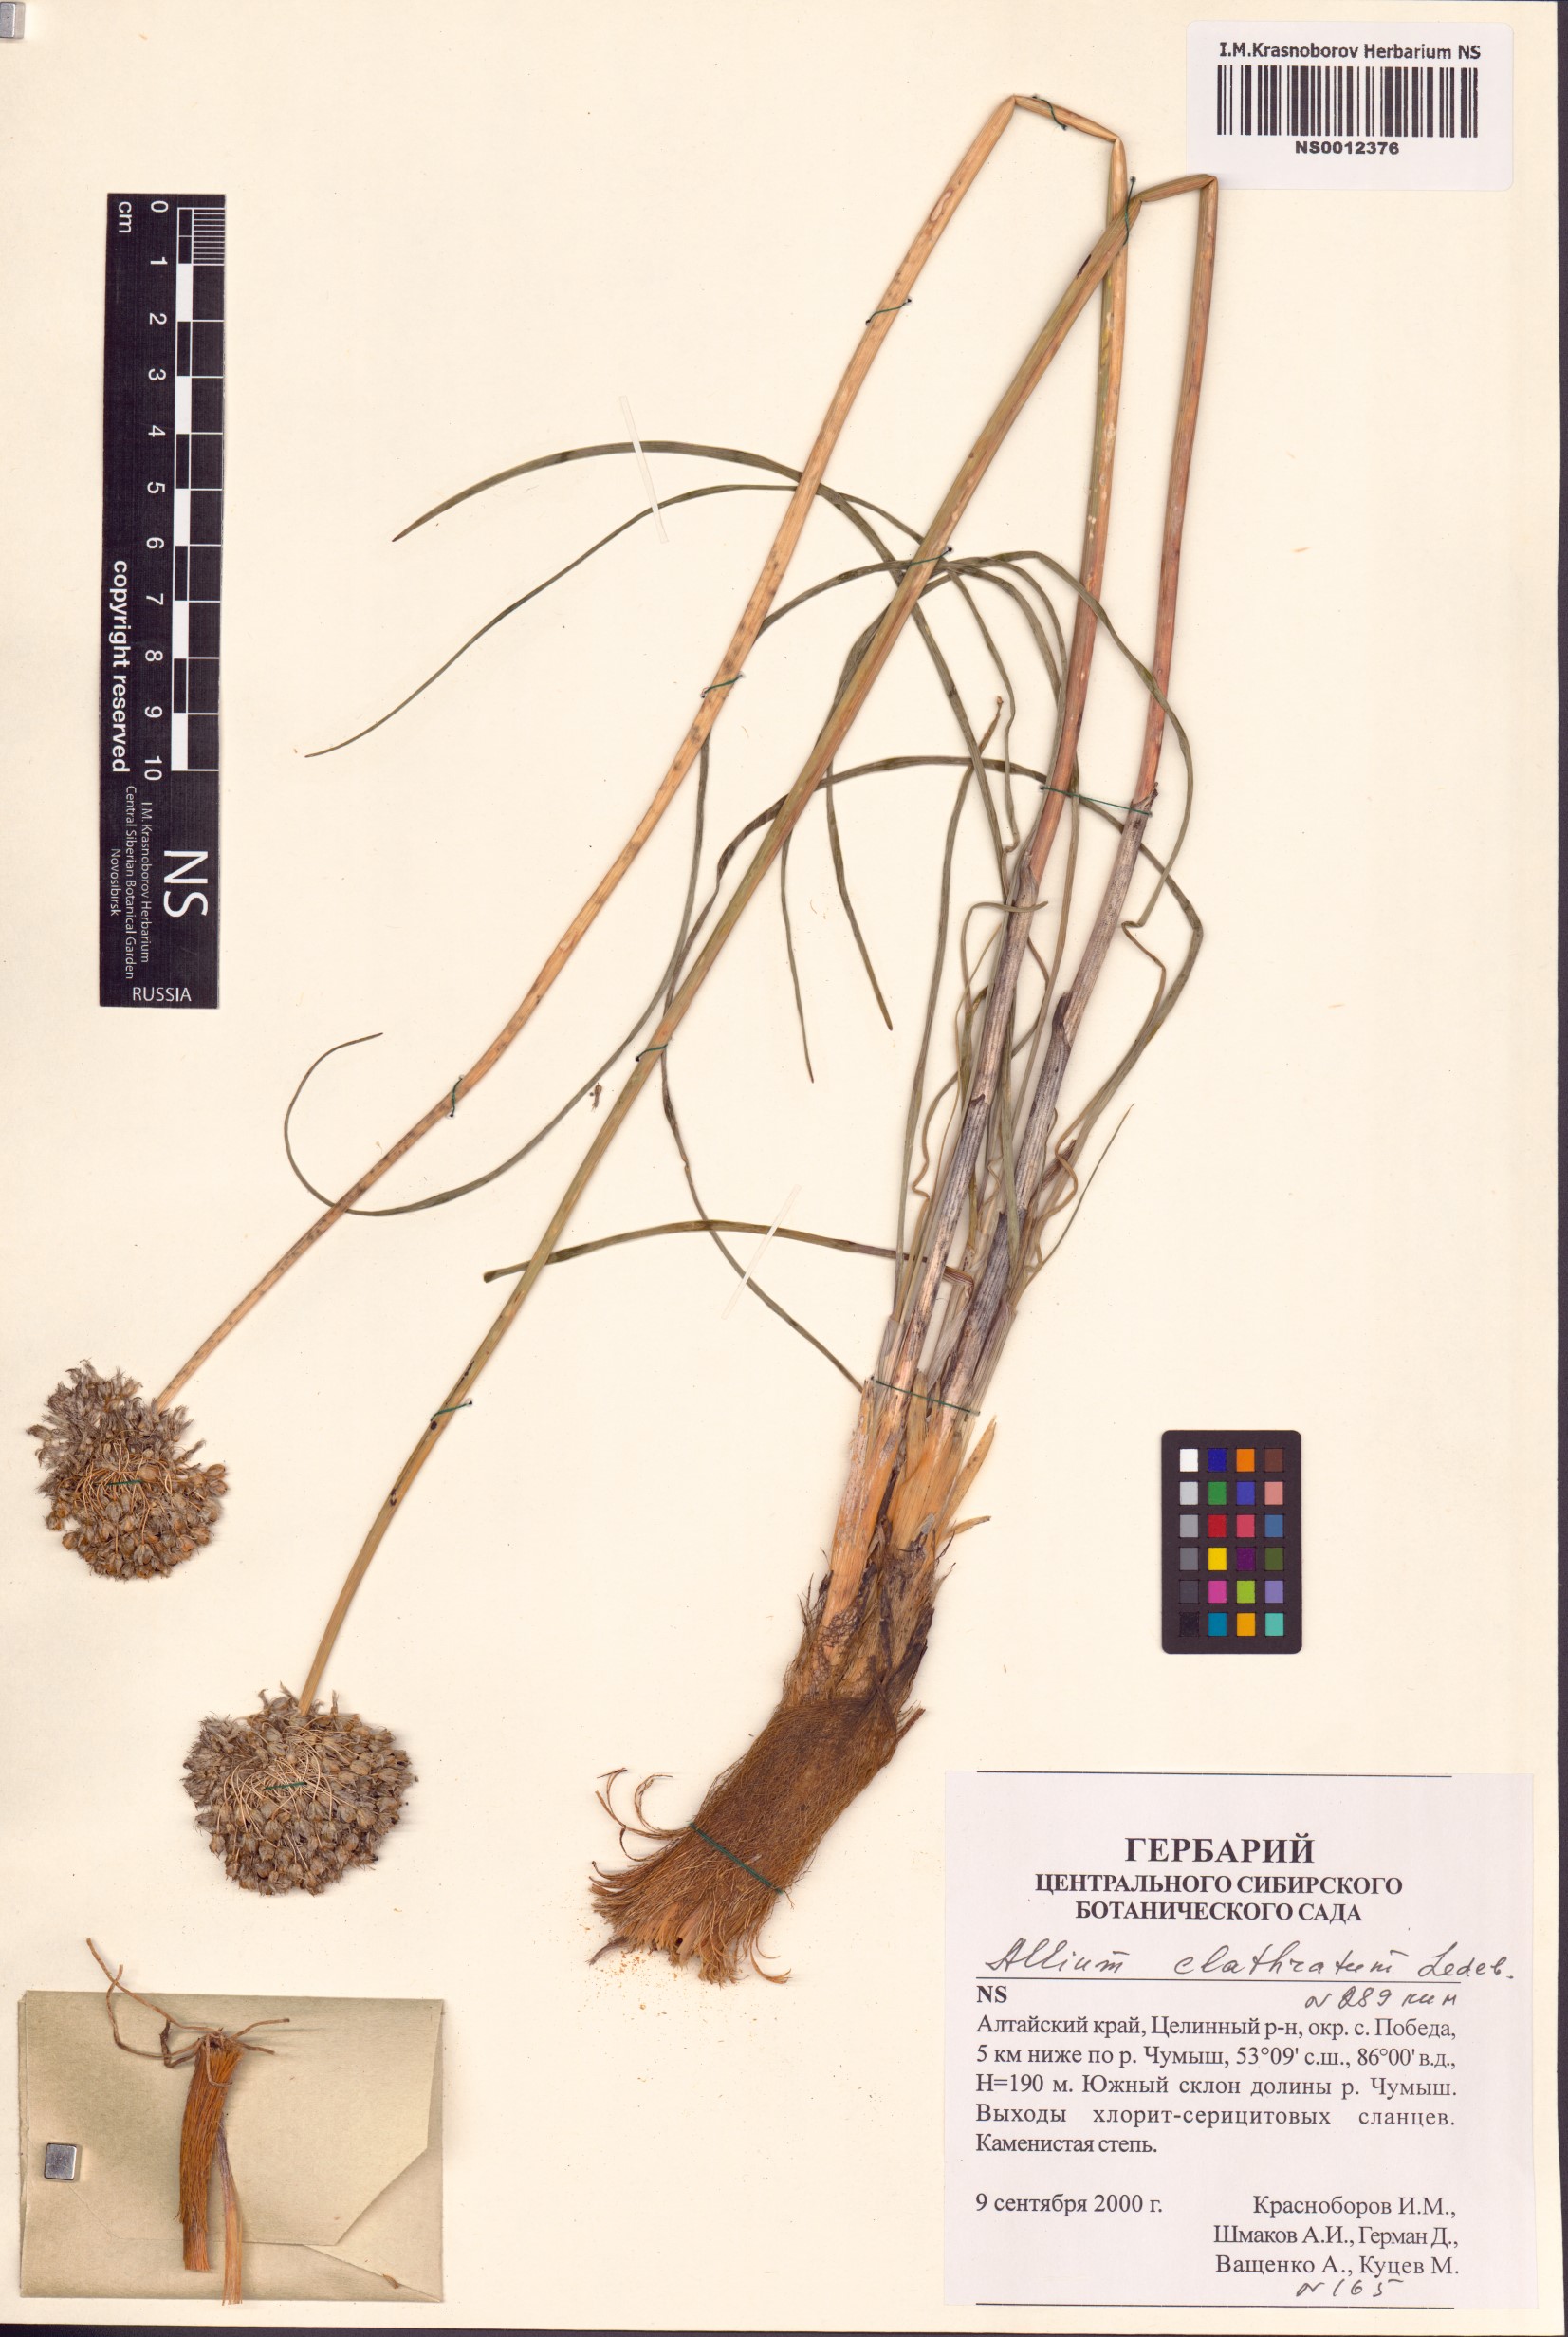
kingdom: Plantae
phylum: Tracheophyta
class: Liliopsida
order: Asparagales
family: Amaryllidaceae
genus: Allium
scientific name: Allium clathratum
